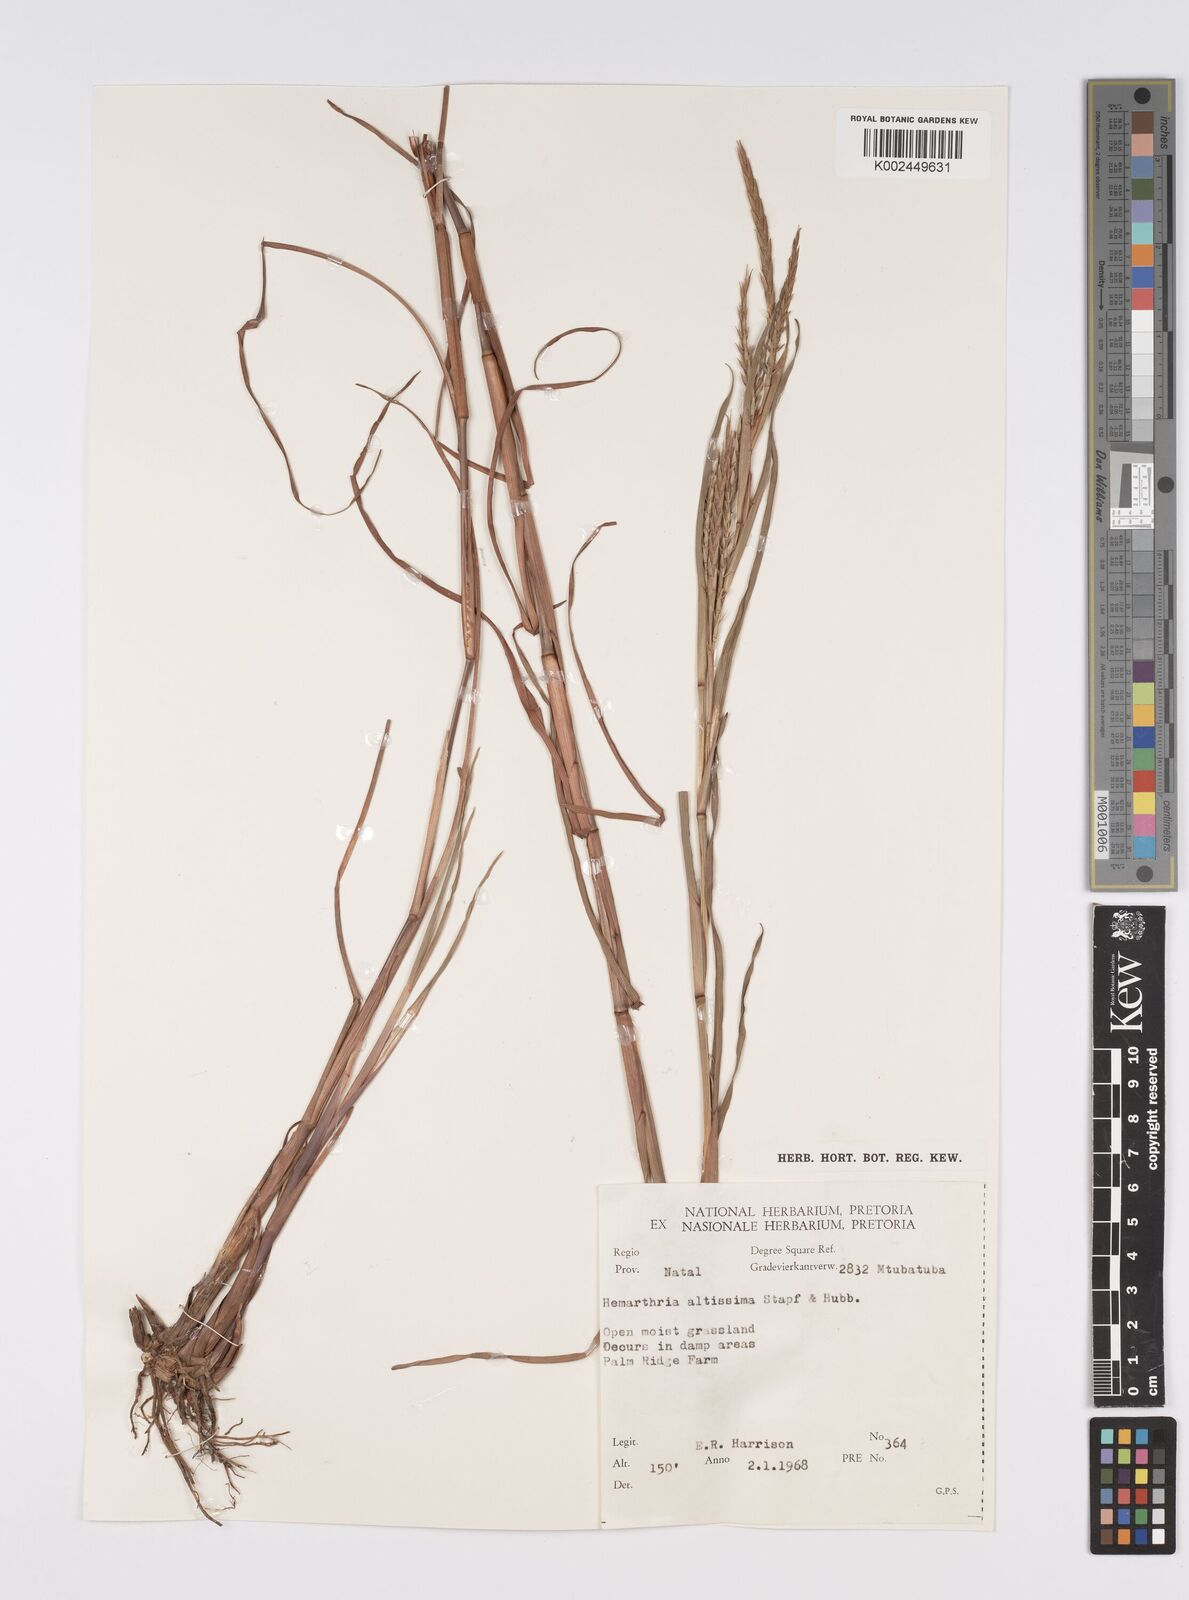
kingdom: Plantae
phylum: Tracheophyta
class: Liliopsida
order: Poales
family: Poaceae
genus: Hemarthria
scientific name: Hemarthria altissima
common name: African jointgrass
